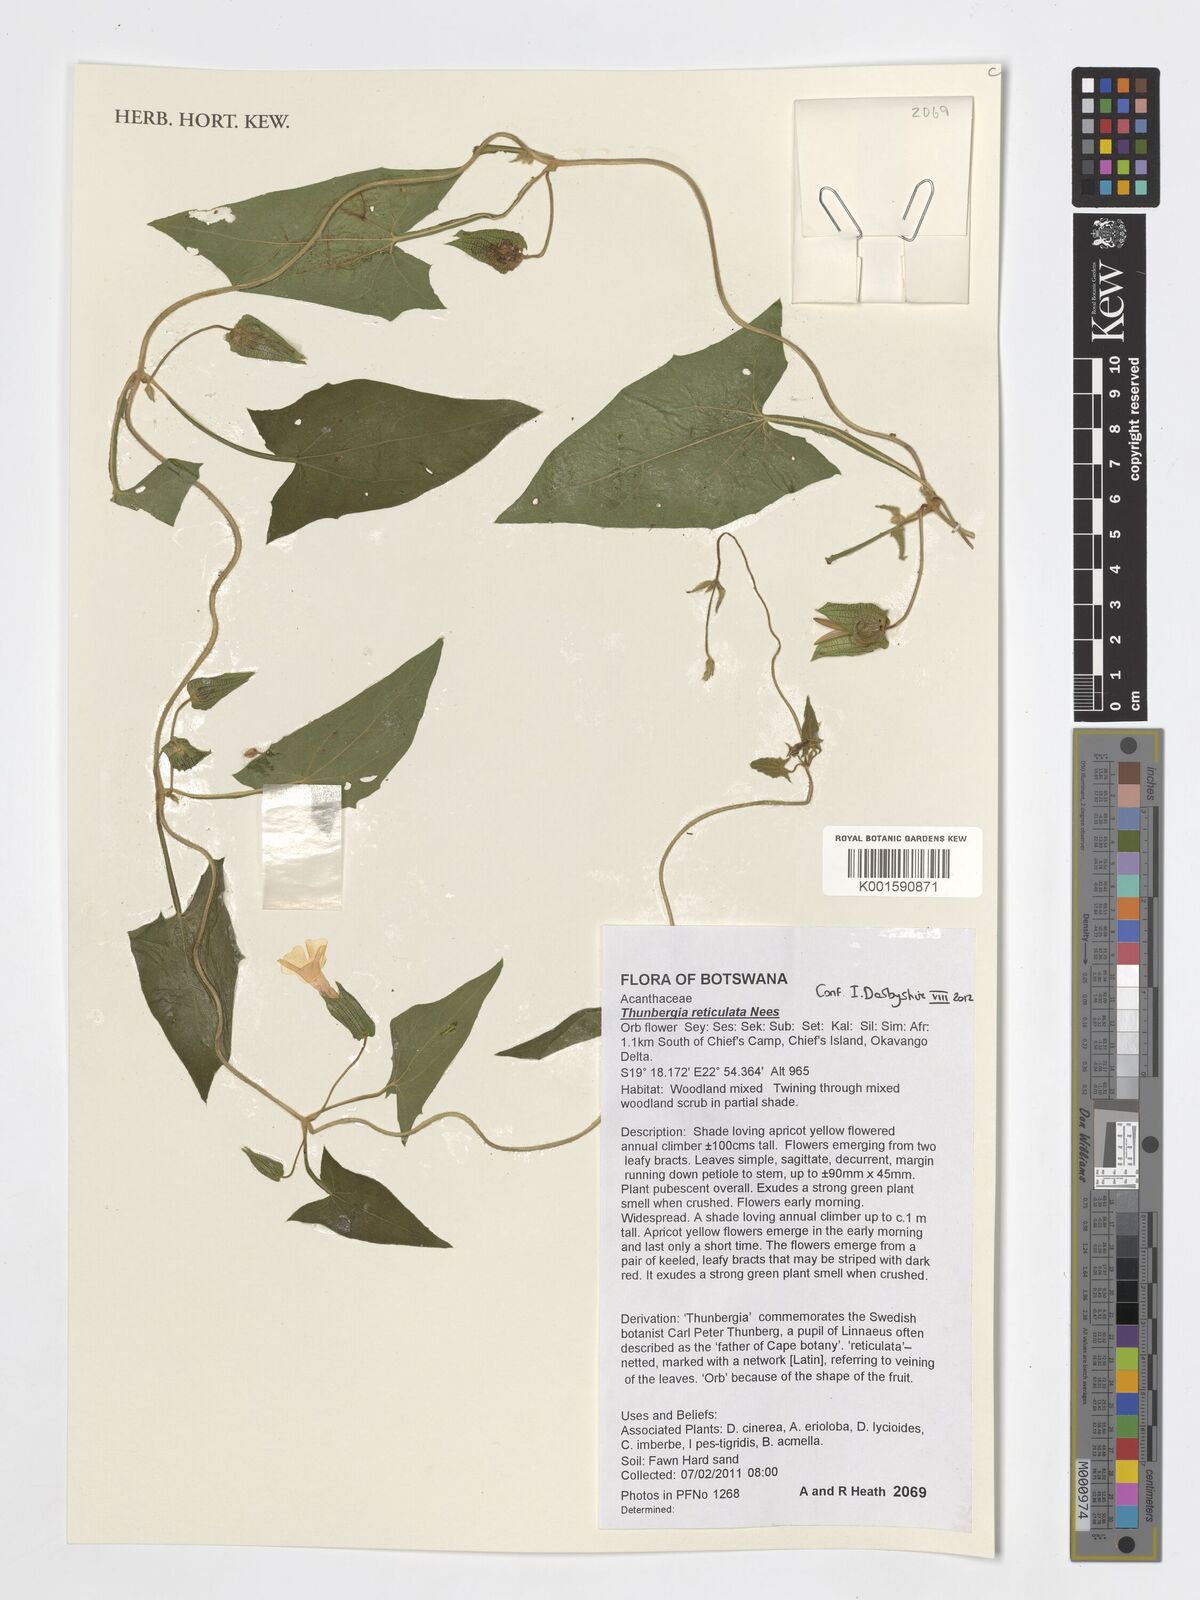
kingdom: Plantae
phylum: Tracheophyta
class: Magnoliopsida
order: Lamiales
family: Acanthaceae
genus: Thunbergia
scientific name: Thunbergia reticulata
